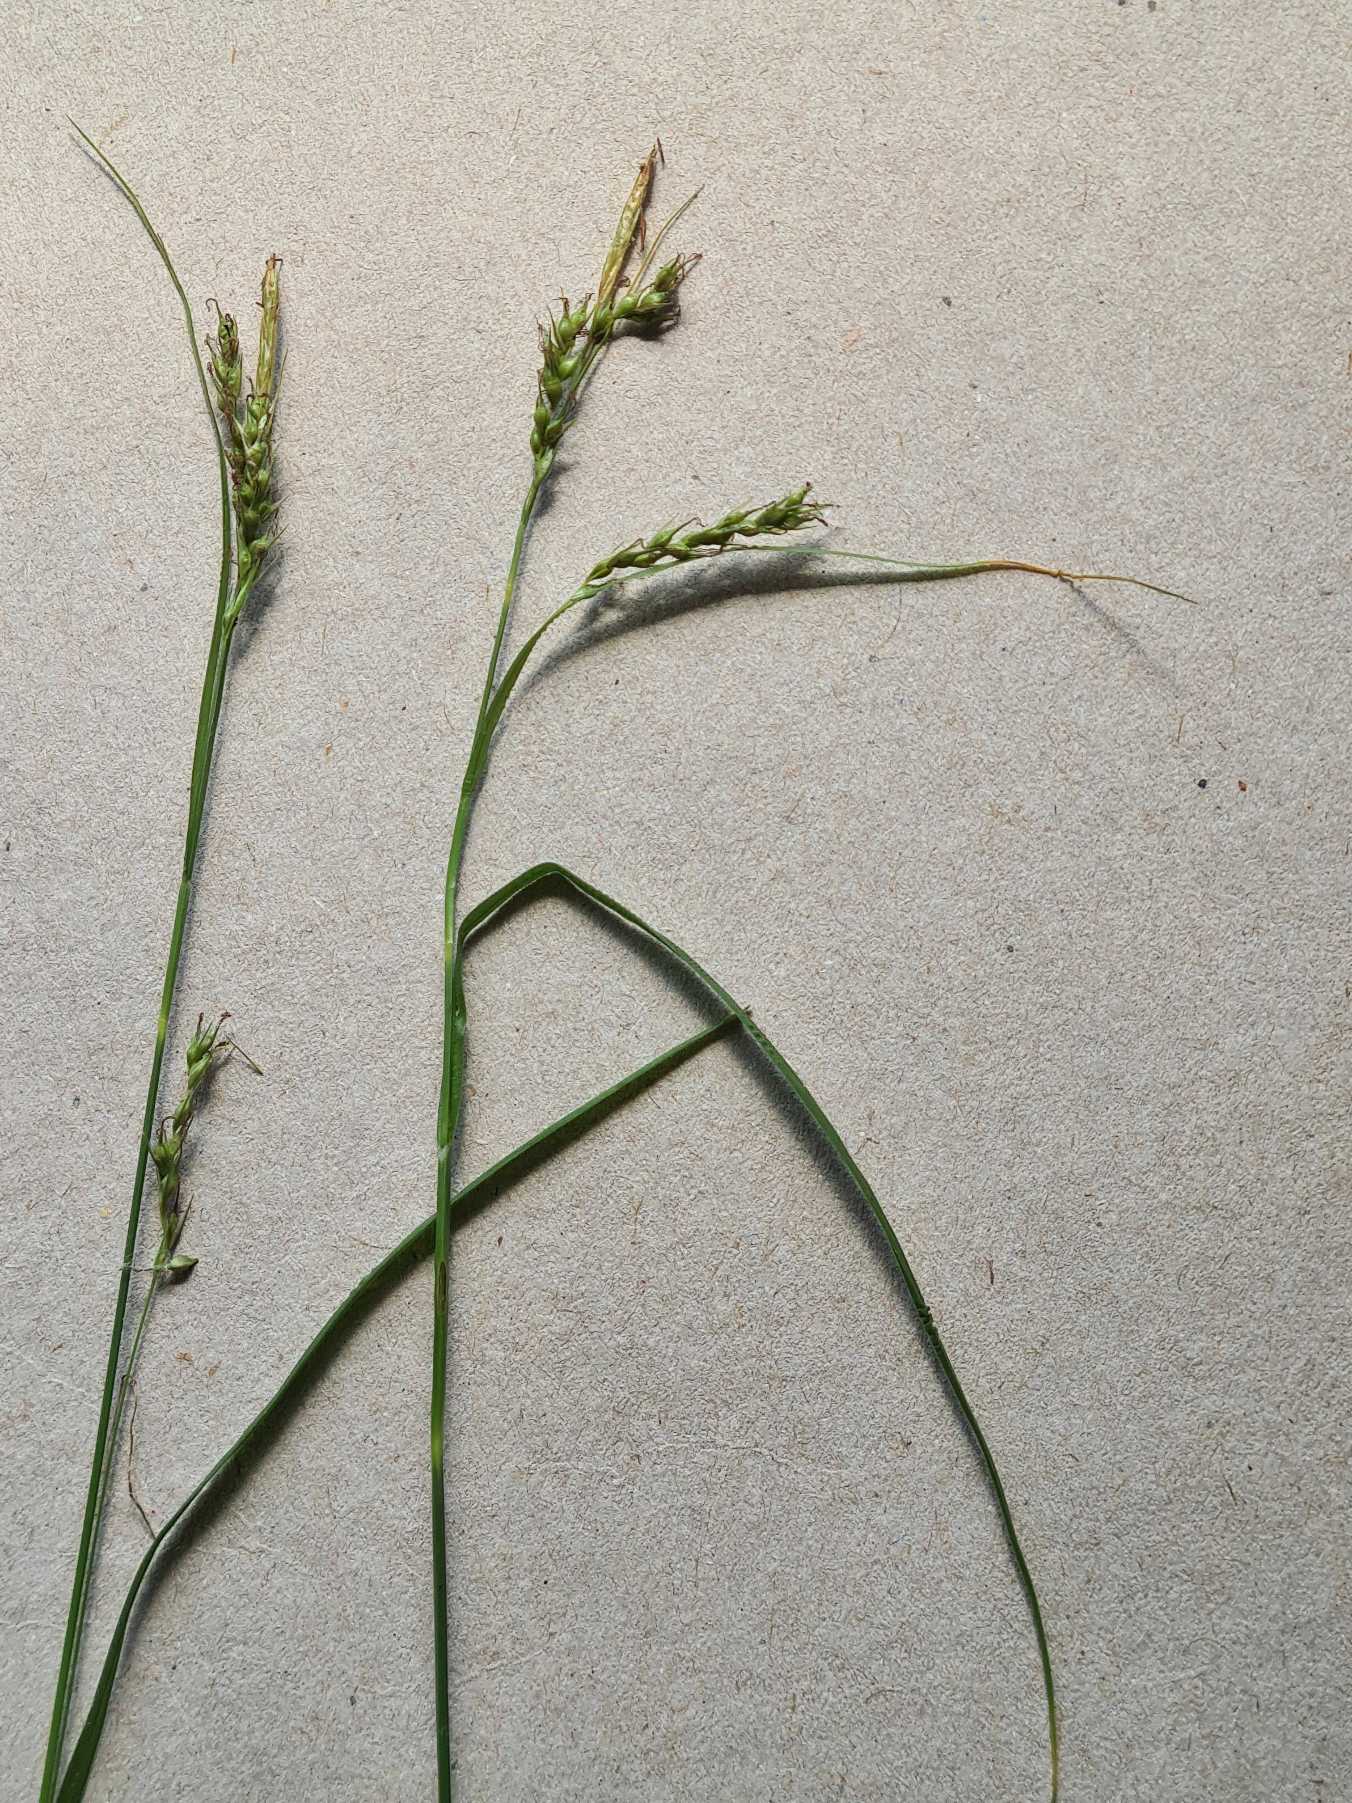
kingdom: Plantae
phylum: Tracheophyta
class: Liliopsida
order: Poales
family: Cyperaceae
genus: Carex
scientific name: Carex sylvatica
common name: Skov-star
